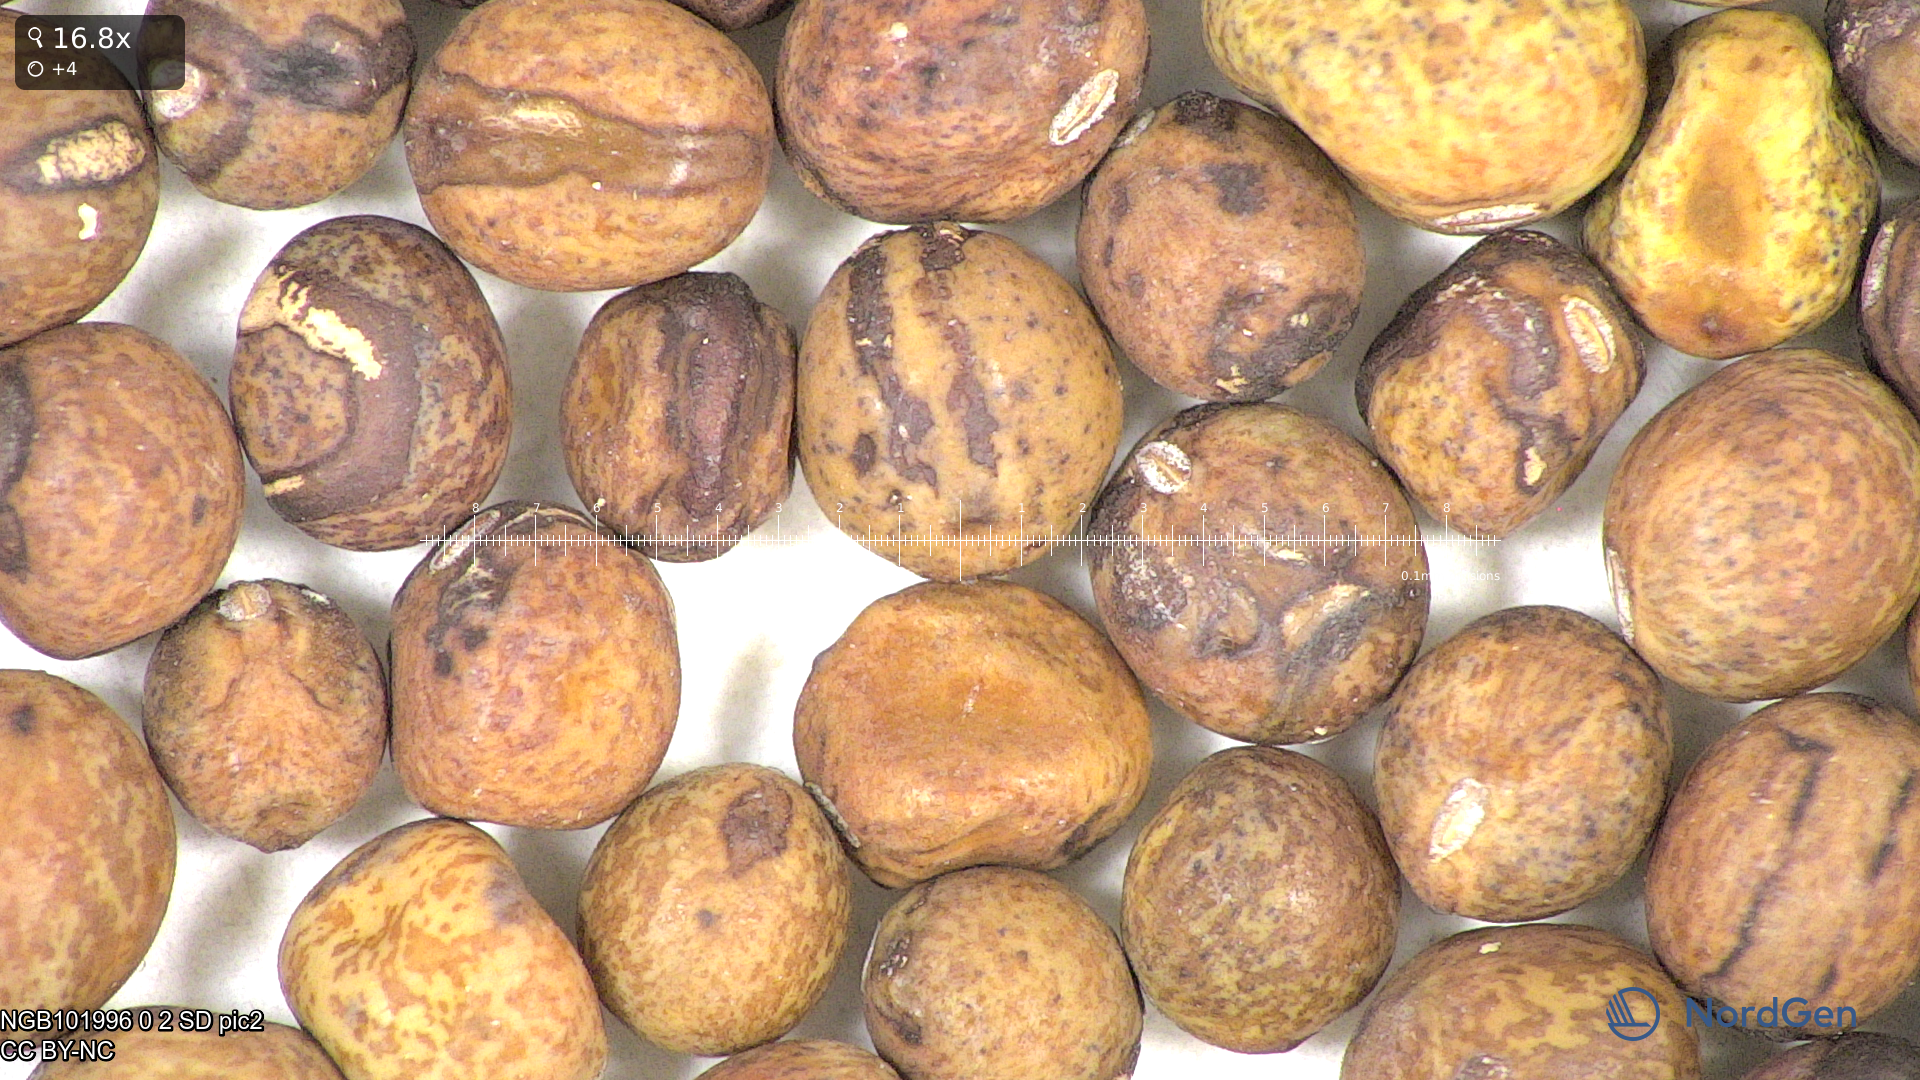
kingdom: Plantae
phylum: Tracheophyta
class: Magnoliopsida
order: Fabales
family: Fabaceae
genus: Lathyrus
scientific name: Lathyrus oleraceus
